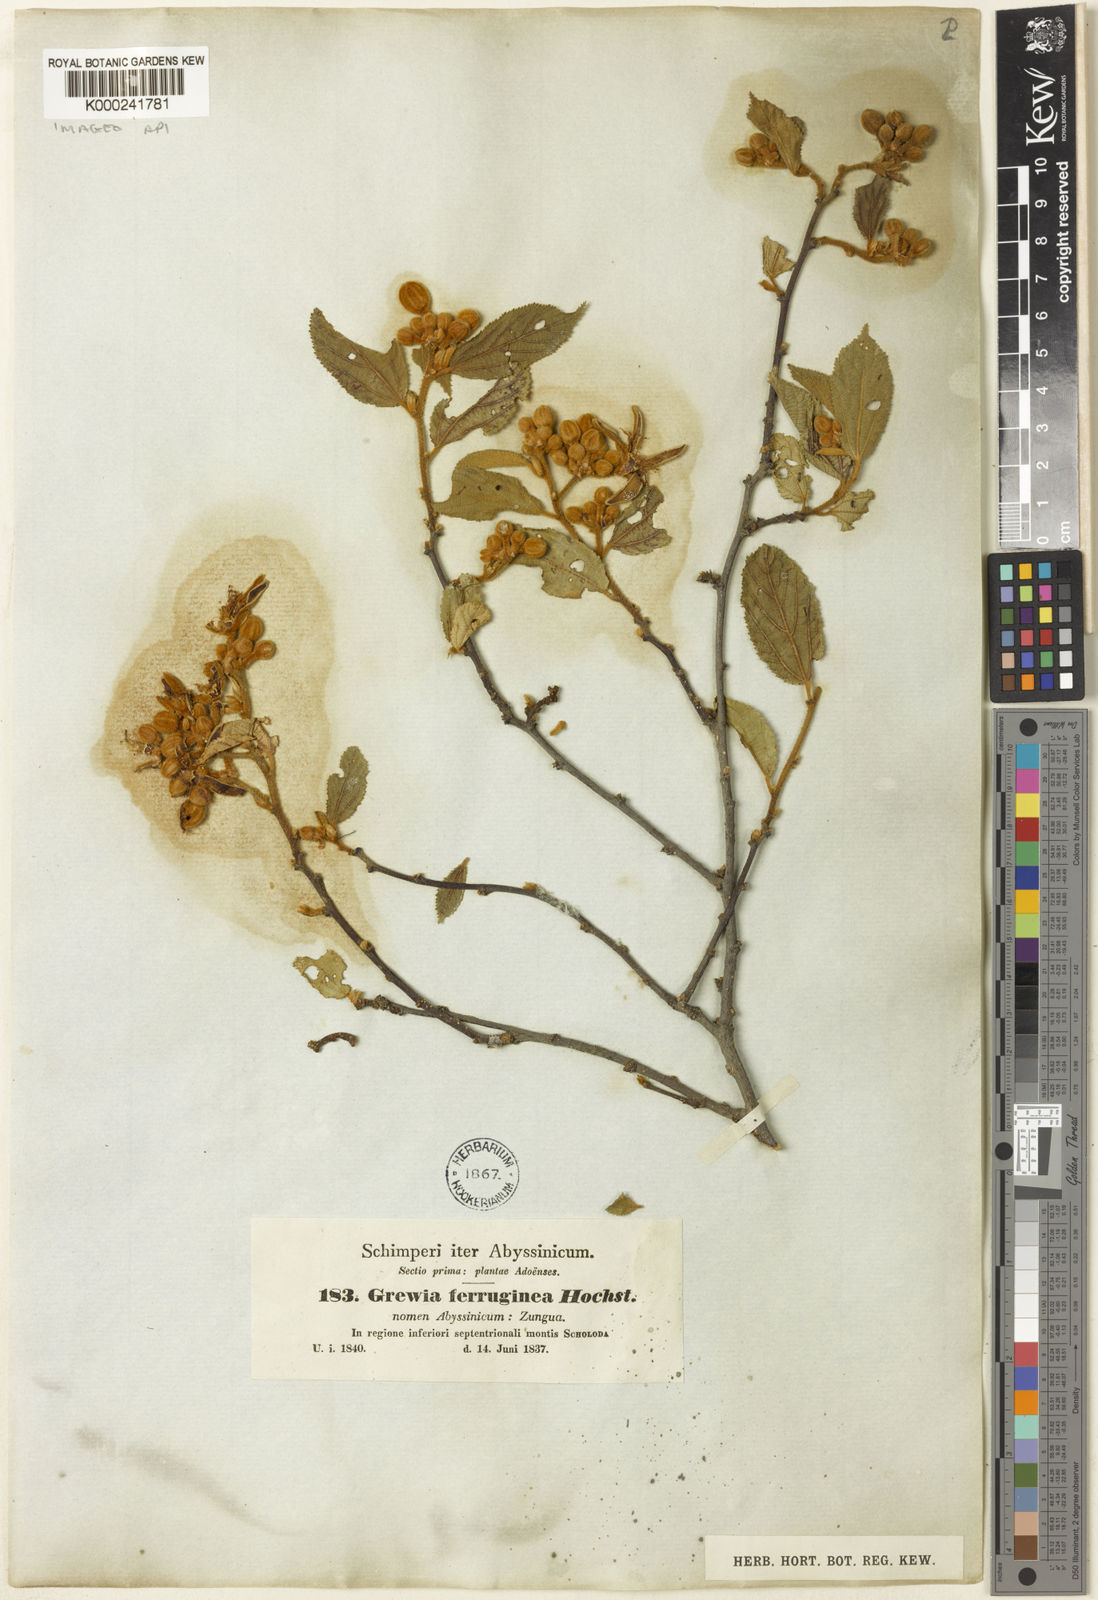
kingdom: Plantae
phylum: Tracheophyta
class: Magnoliopsida
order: Malvales
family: Malvaceae
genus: Grewia
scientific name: Grewia ferruginea
